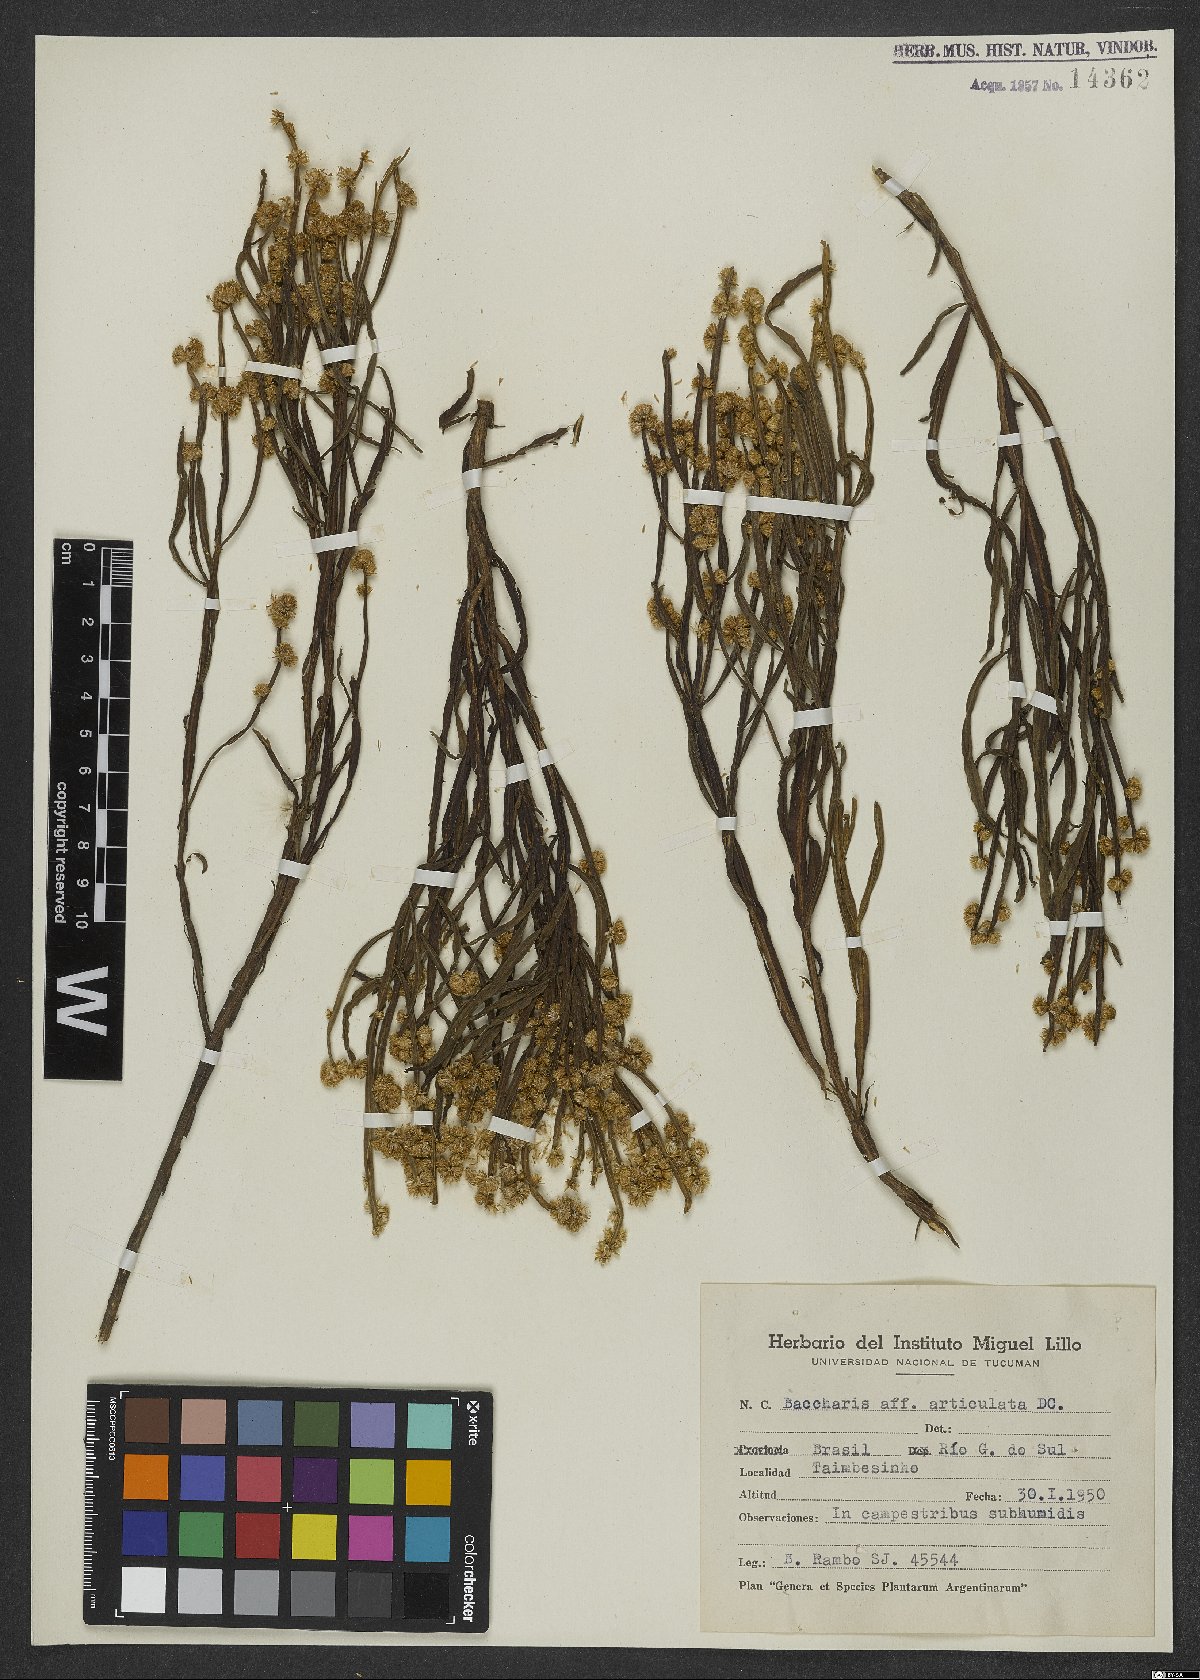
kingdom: Plantae
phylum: Tracheophyta
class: Magnoliopsida
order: Asterales
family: Asteraceae
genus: Baccharis
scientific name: Baccharis articulata
